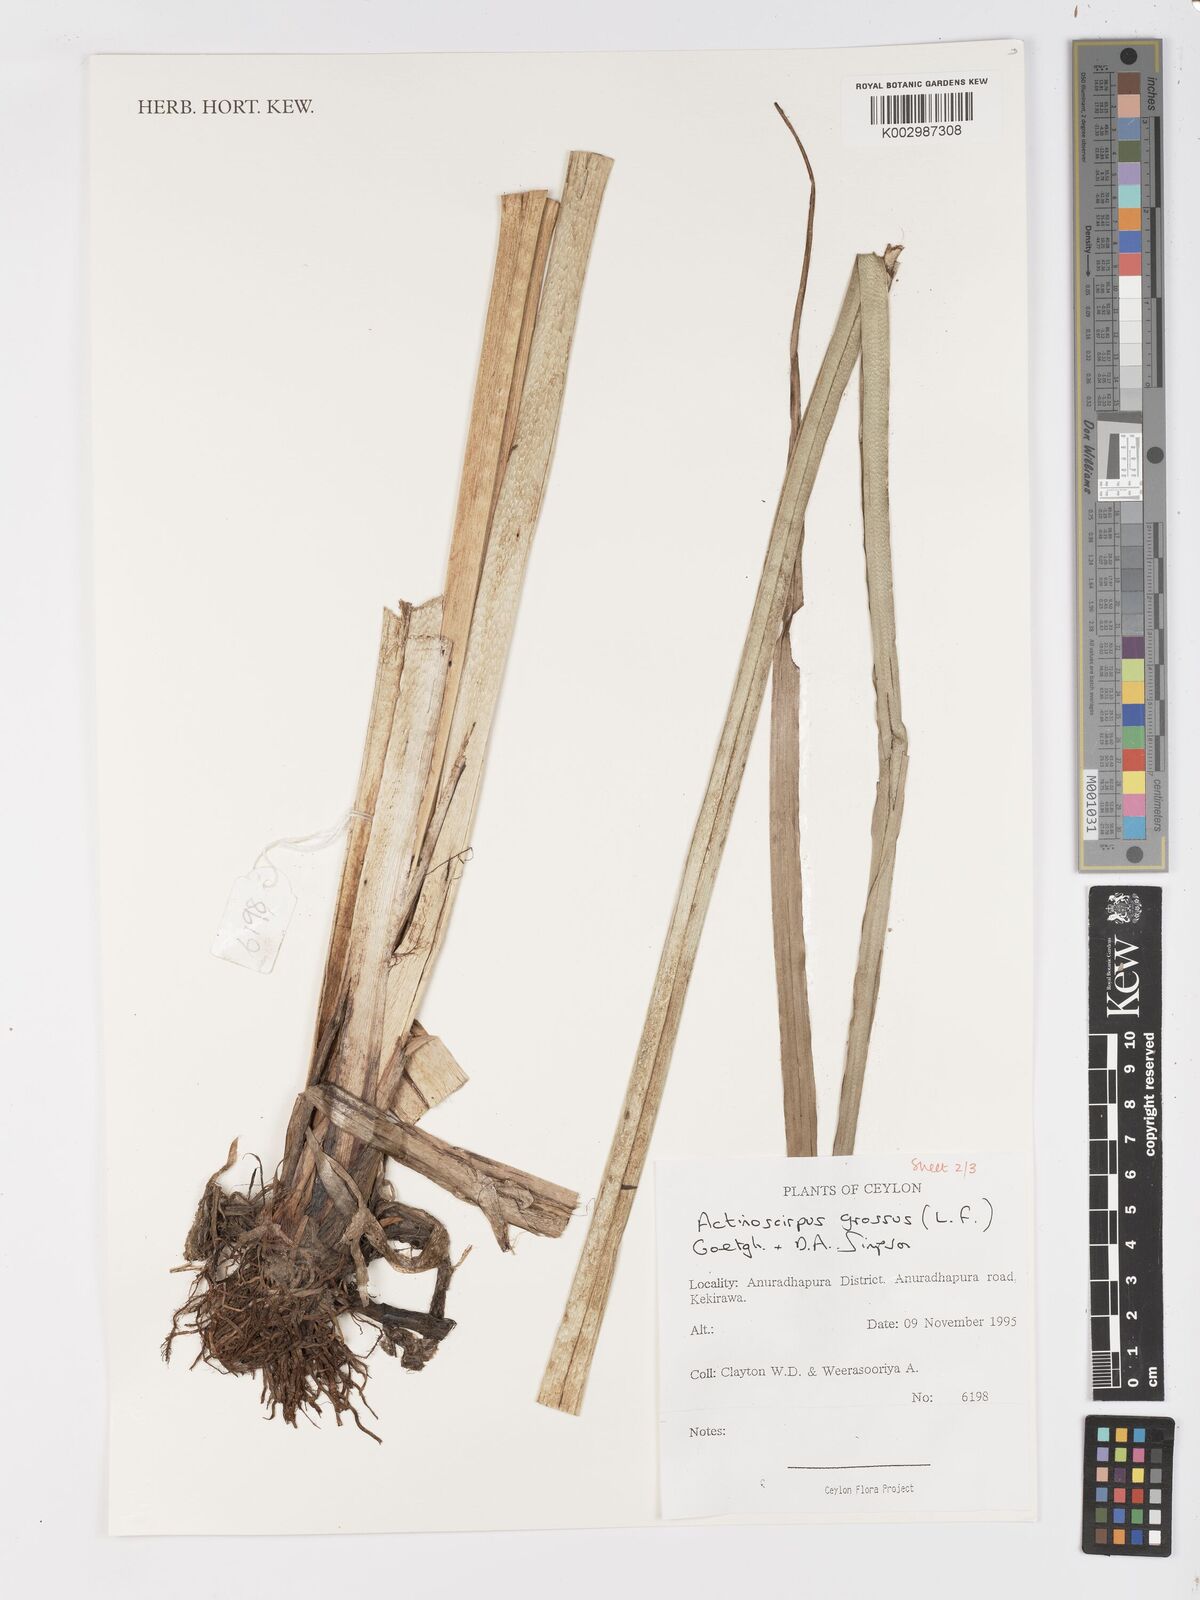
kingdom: Plantae
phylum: Tracheophyta
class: Liliopsida
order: Poales
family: Cyperaceae
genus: Actinoscirpus
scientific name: Actinoscirpus grossus
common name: Giant bur rush
